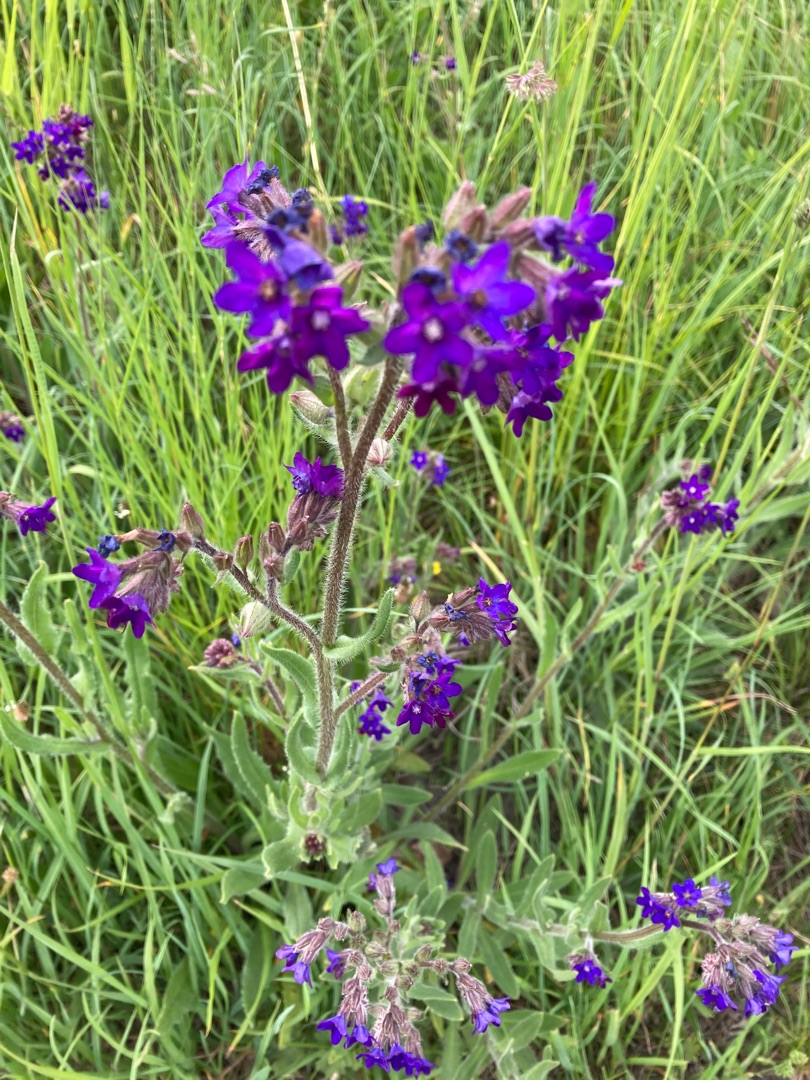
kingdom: Plantae
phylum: Tracheophyta
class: Magnoliopsida
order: Boraginales
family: Boraginaceae
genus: Anchusa
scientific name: Anchusa officinalis
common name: Læge-oksetunge
